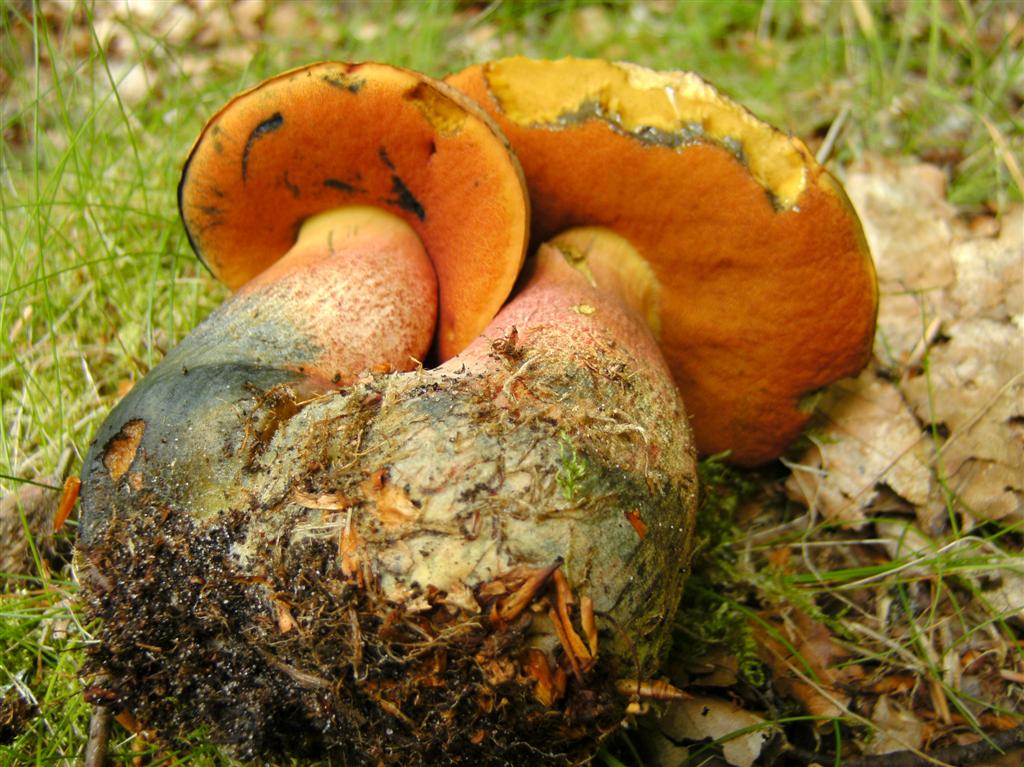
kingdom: Fungi
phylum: Basidiomycota
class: Agaricomycetes
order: Boletales
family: Boletaceae
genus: Neoboletus
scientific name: Neoboletus erythropus
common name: punktstokket indigorørhat
